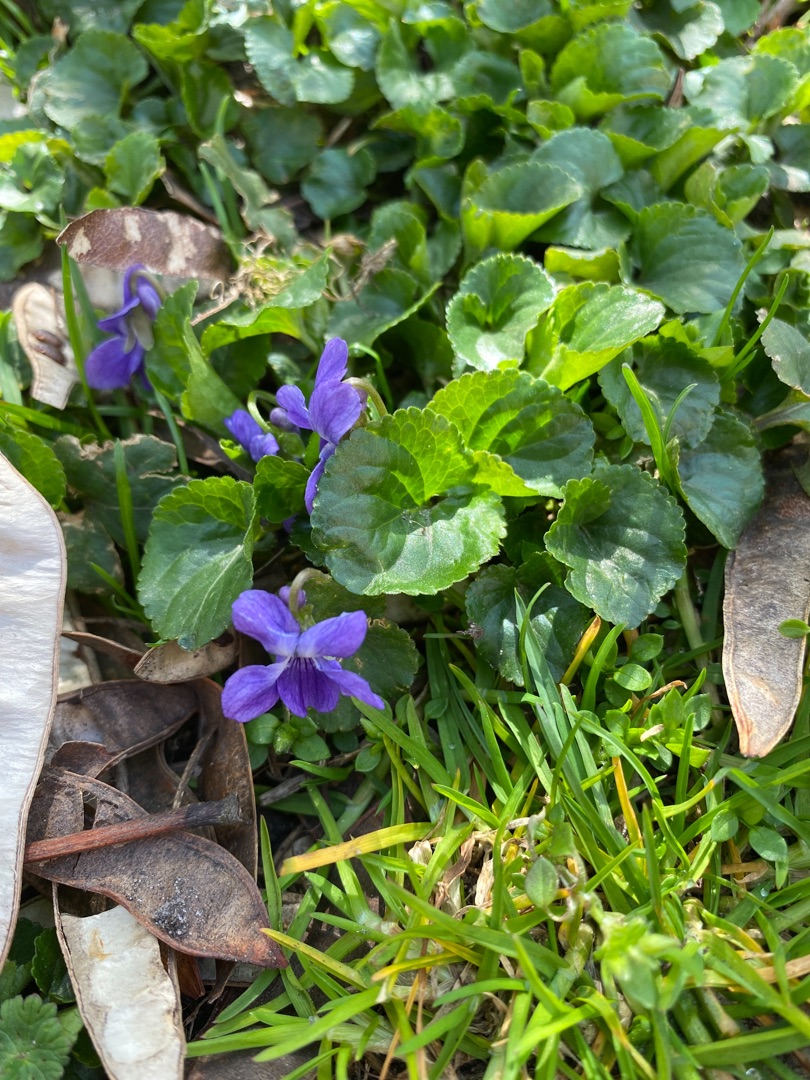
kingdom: Plantae
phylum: Tracheophyta
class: Magnoliopsida
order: Malpighiales
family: Violaceae
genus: Viola
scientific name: Viola odorata
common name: Marts-viol
